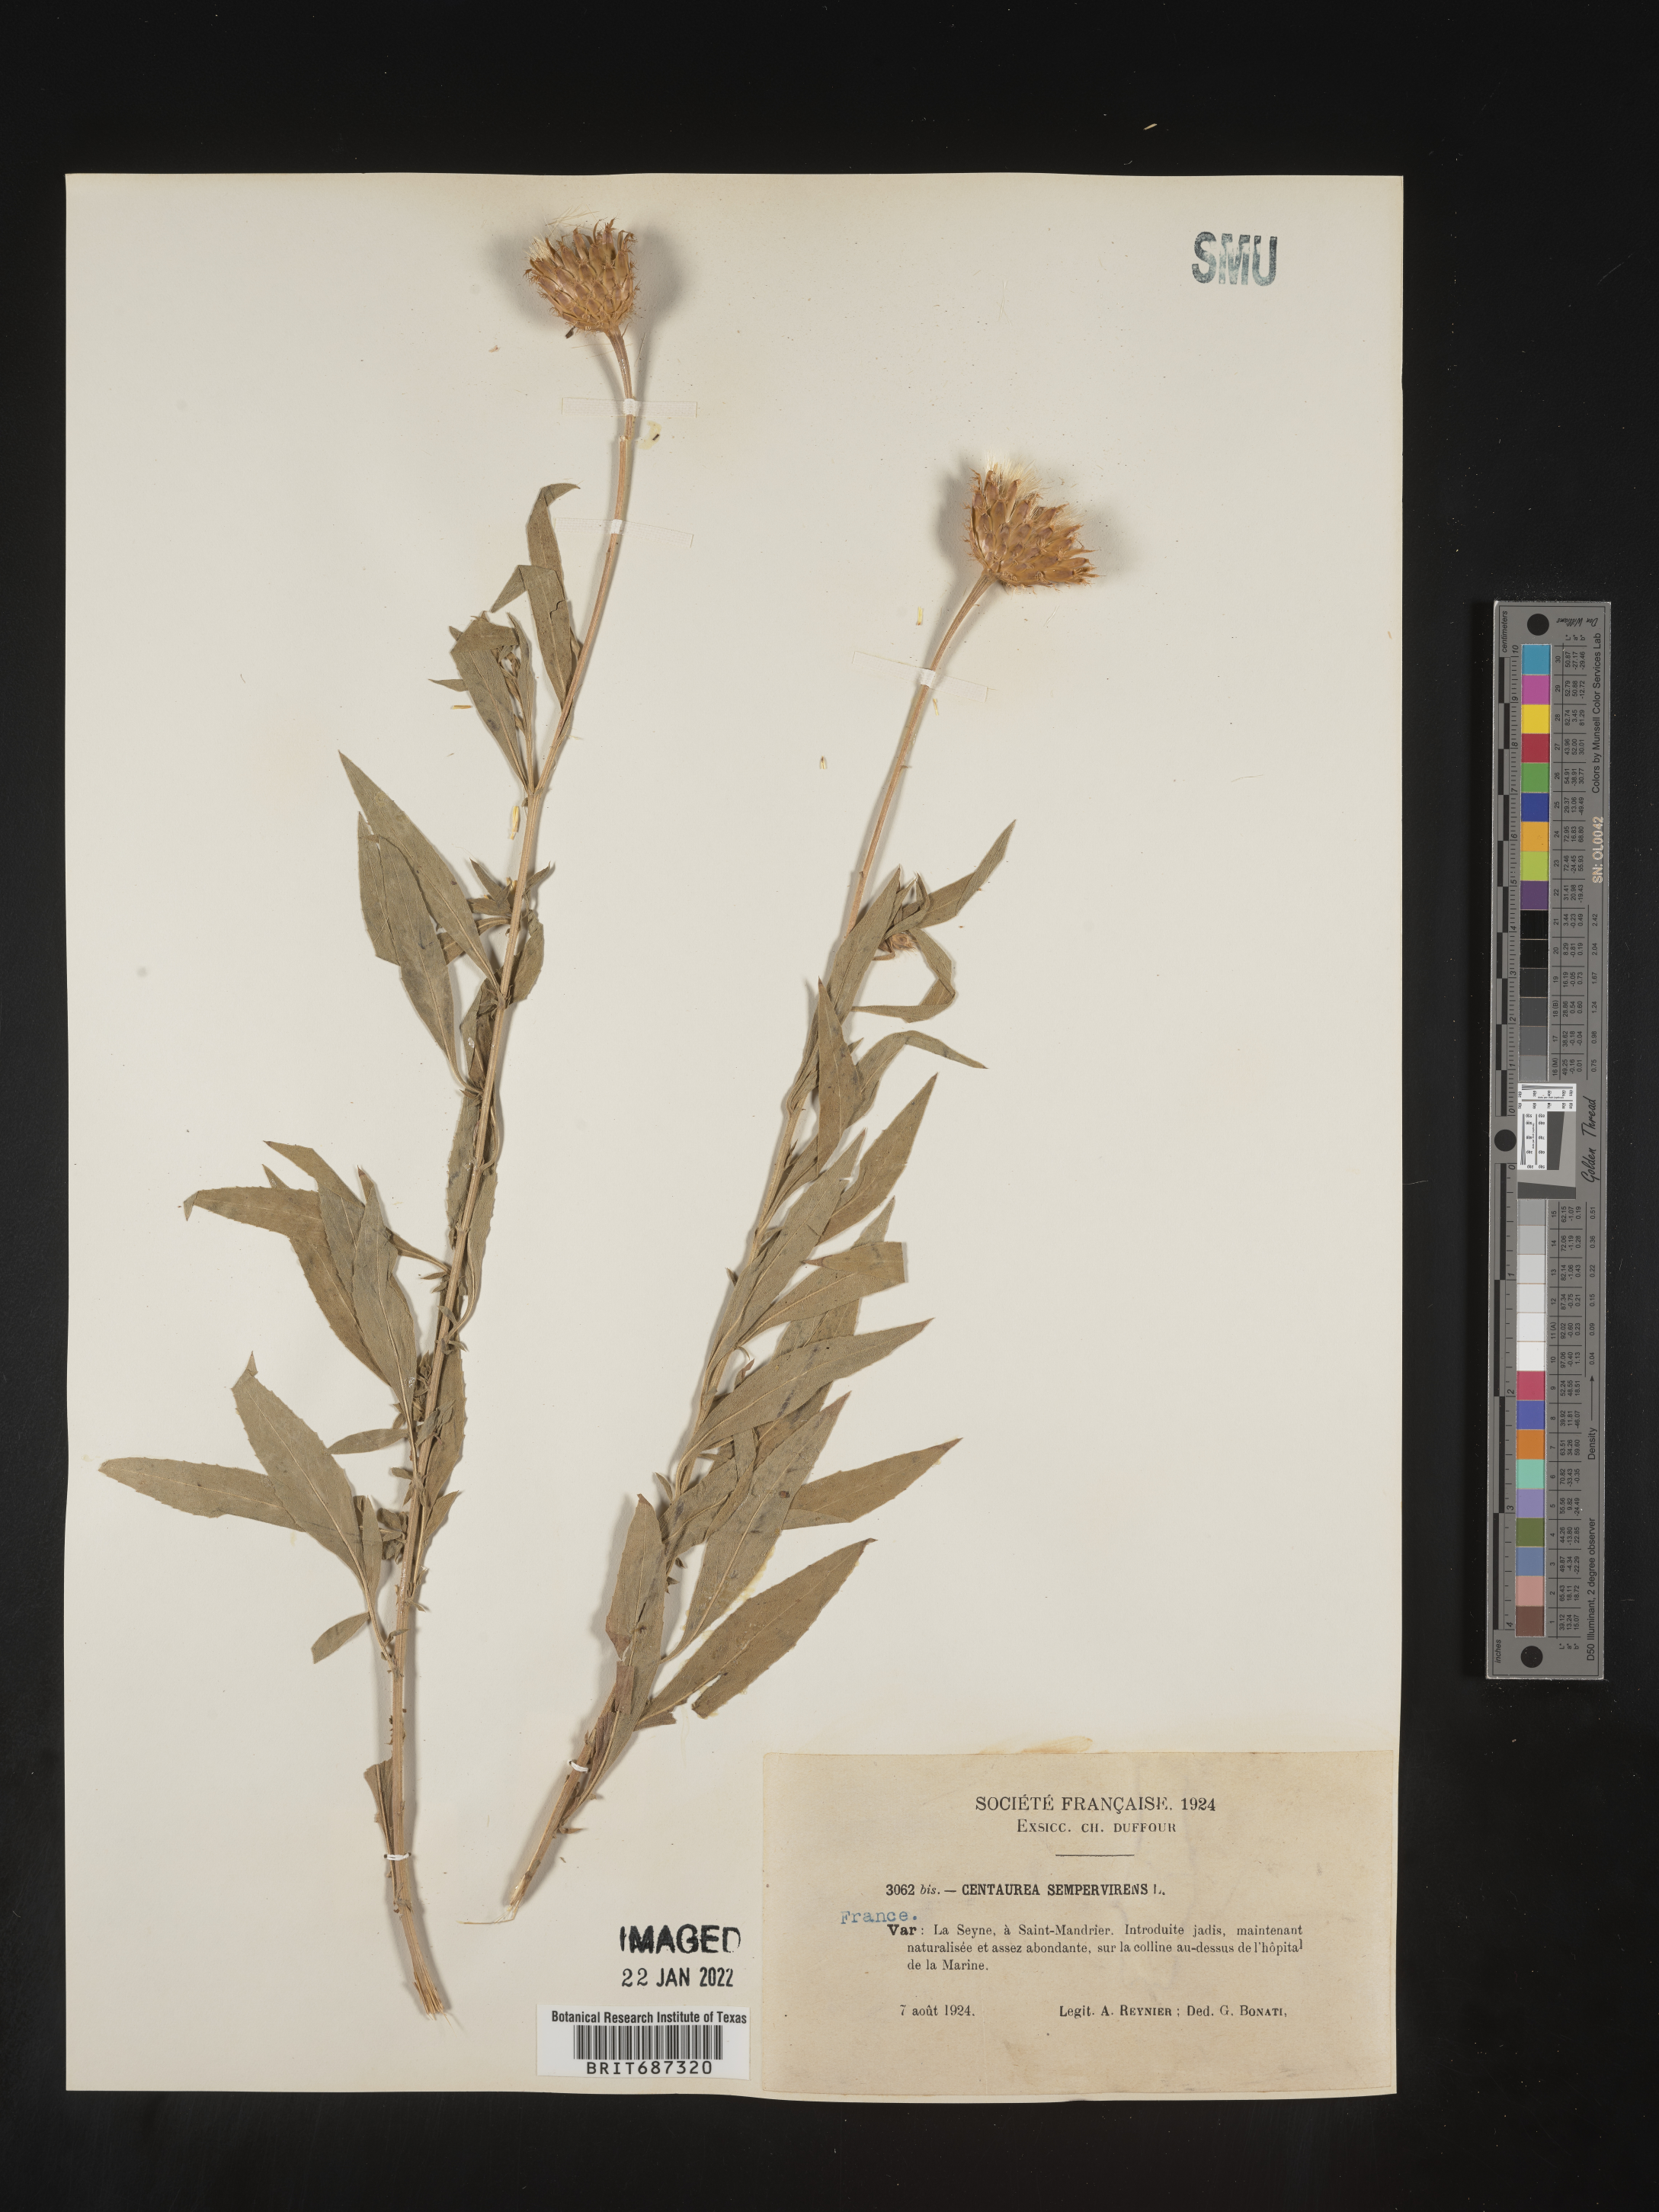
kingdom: Plantae
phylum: Tracheophyta
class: Magnoliopsida
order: Asterales
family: Asteraceae
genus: Centaurea
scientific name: Centaurea
